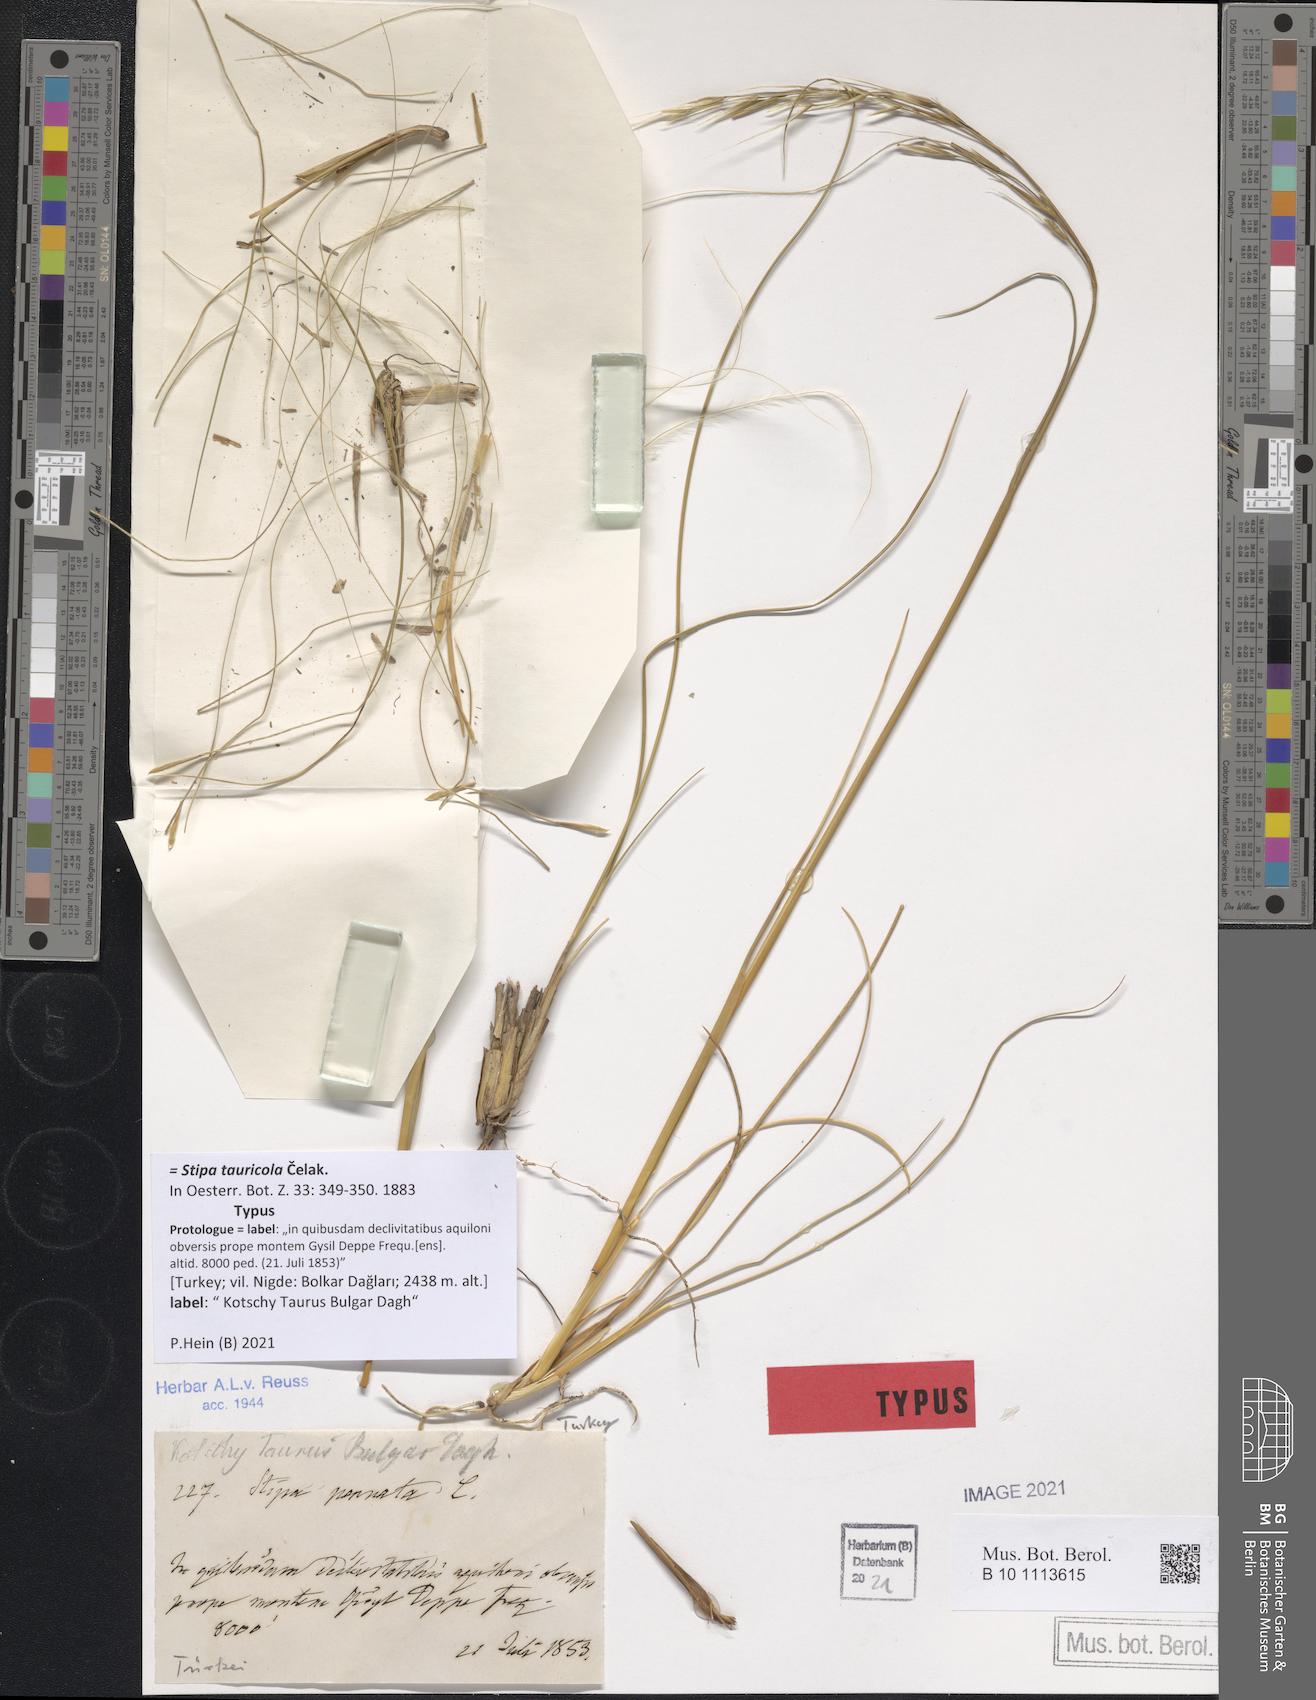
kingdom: Plantae
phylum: Tracheophyta
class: Liliopsida
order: Poales
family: Poaceae
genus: Stipa
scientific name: Stipa pennata
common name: European feather grass
